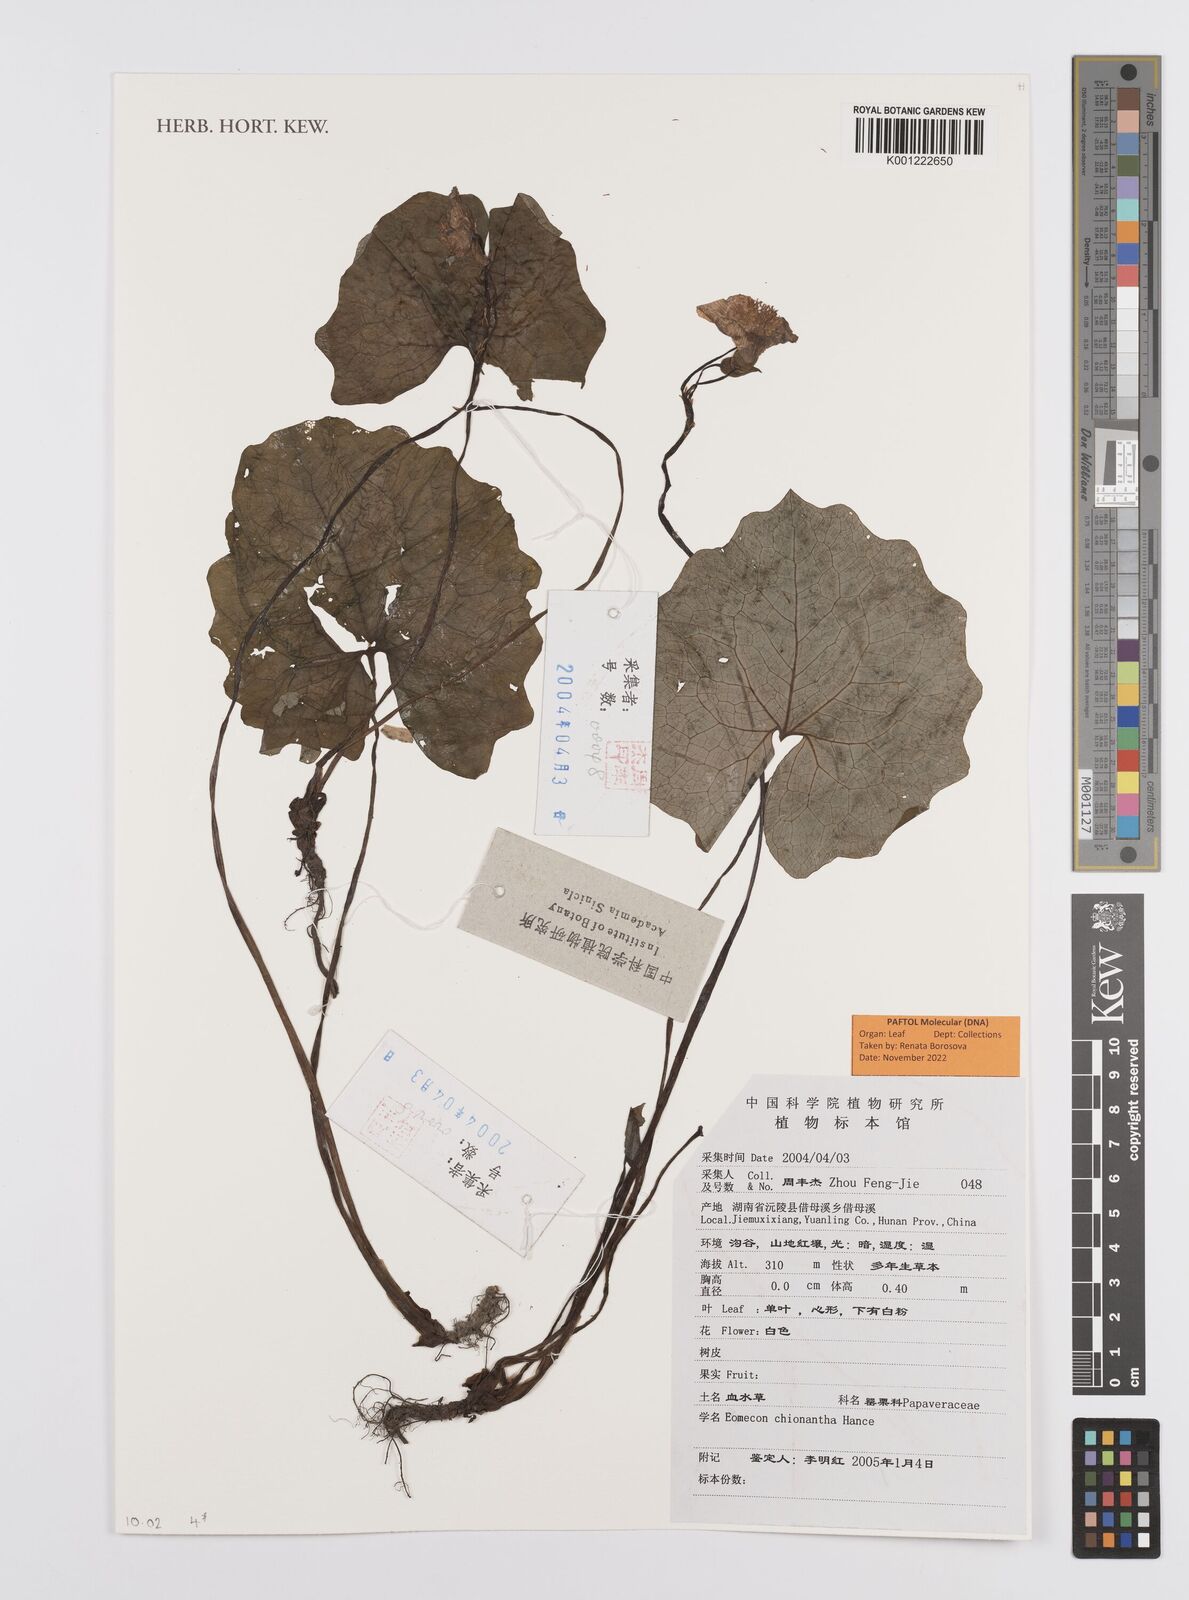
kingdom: Plantae
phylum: Tracheophyta
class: Magnoliopsida
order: Ranunculales
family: Papaveraceae
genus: Eomecon
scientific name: Eomecon chionantha
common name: Dawn-poppy
